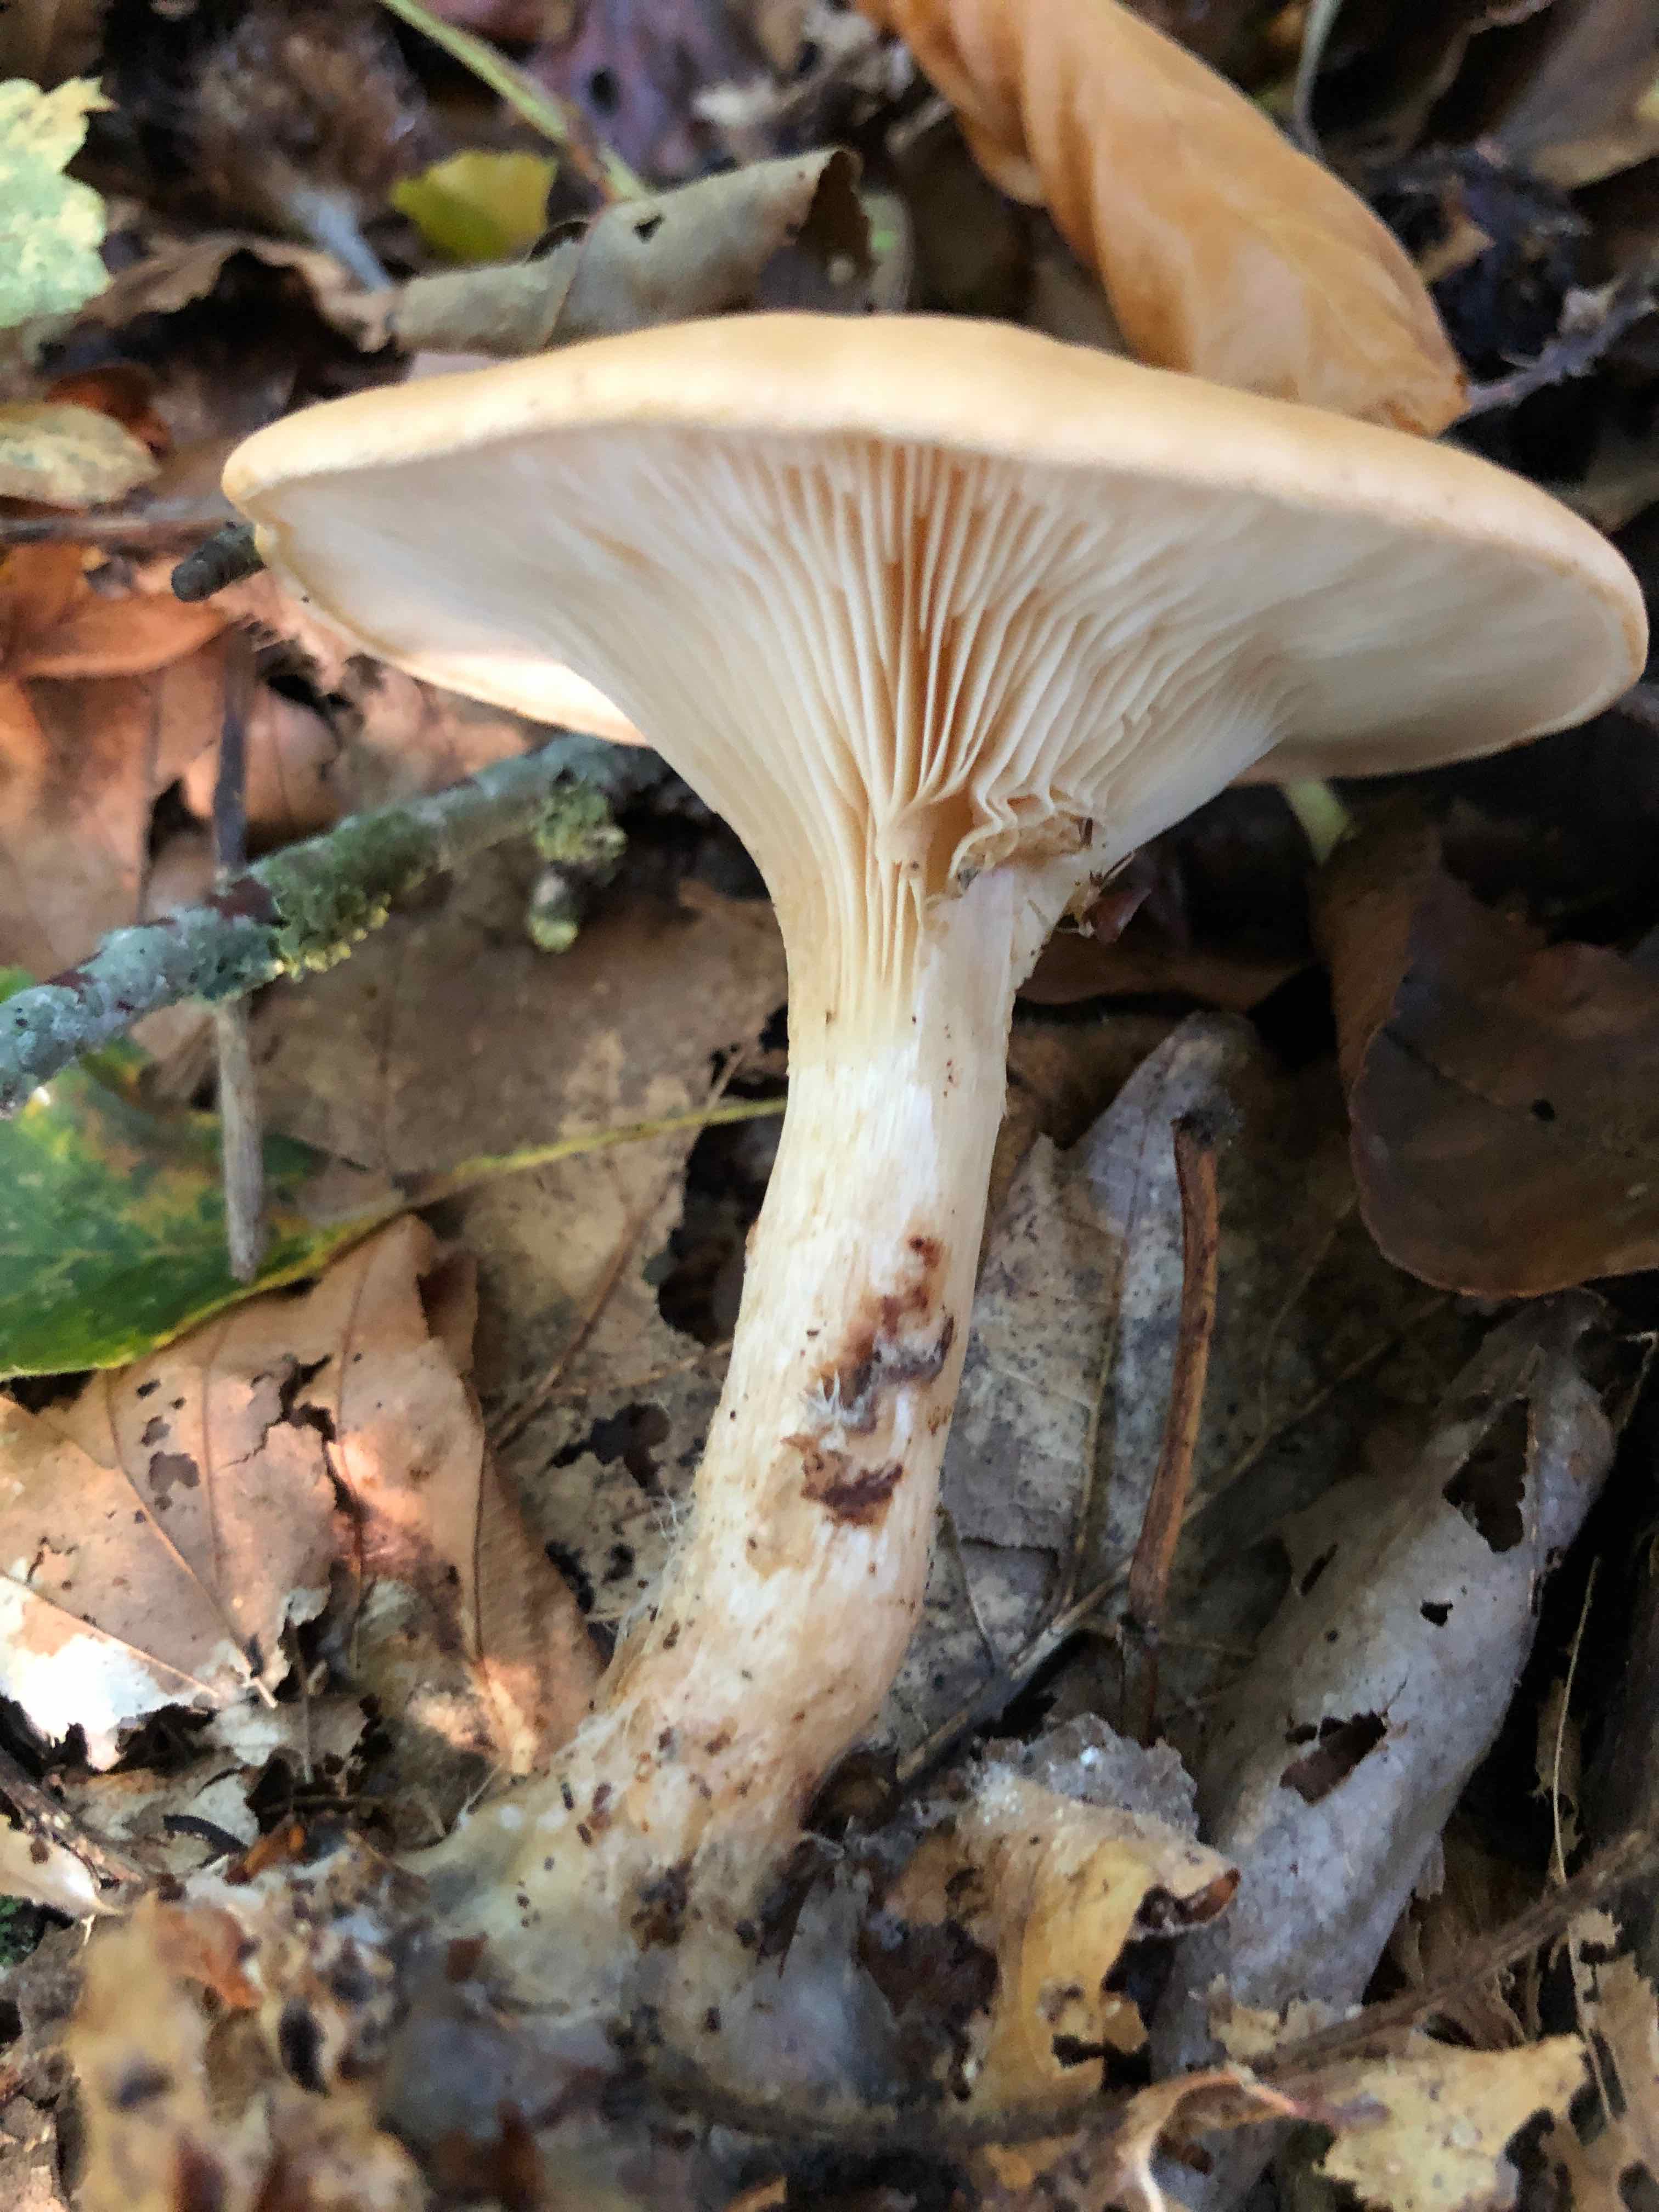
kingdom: Fungi
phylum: Basidiomycota
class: Agaricomycetes
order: Agaricales
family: Tricholomataceae
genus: Paralepista
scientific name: Paralepista flaccida
